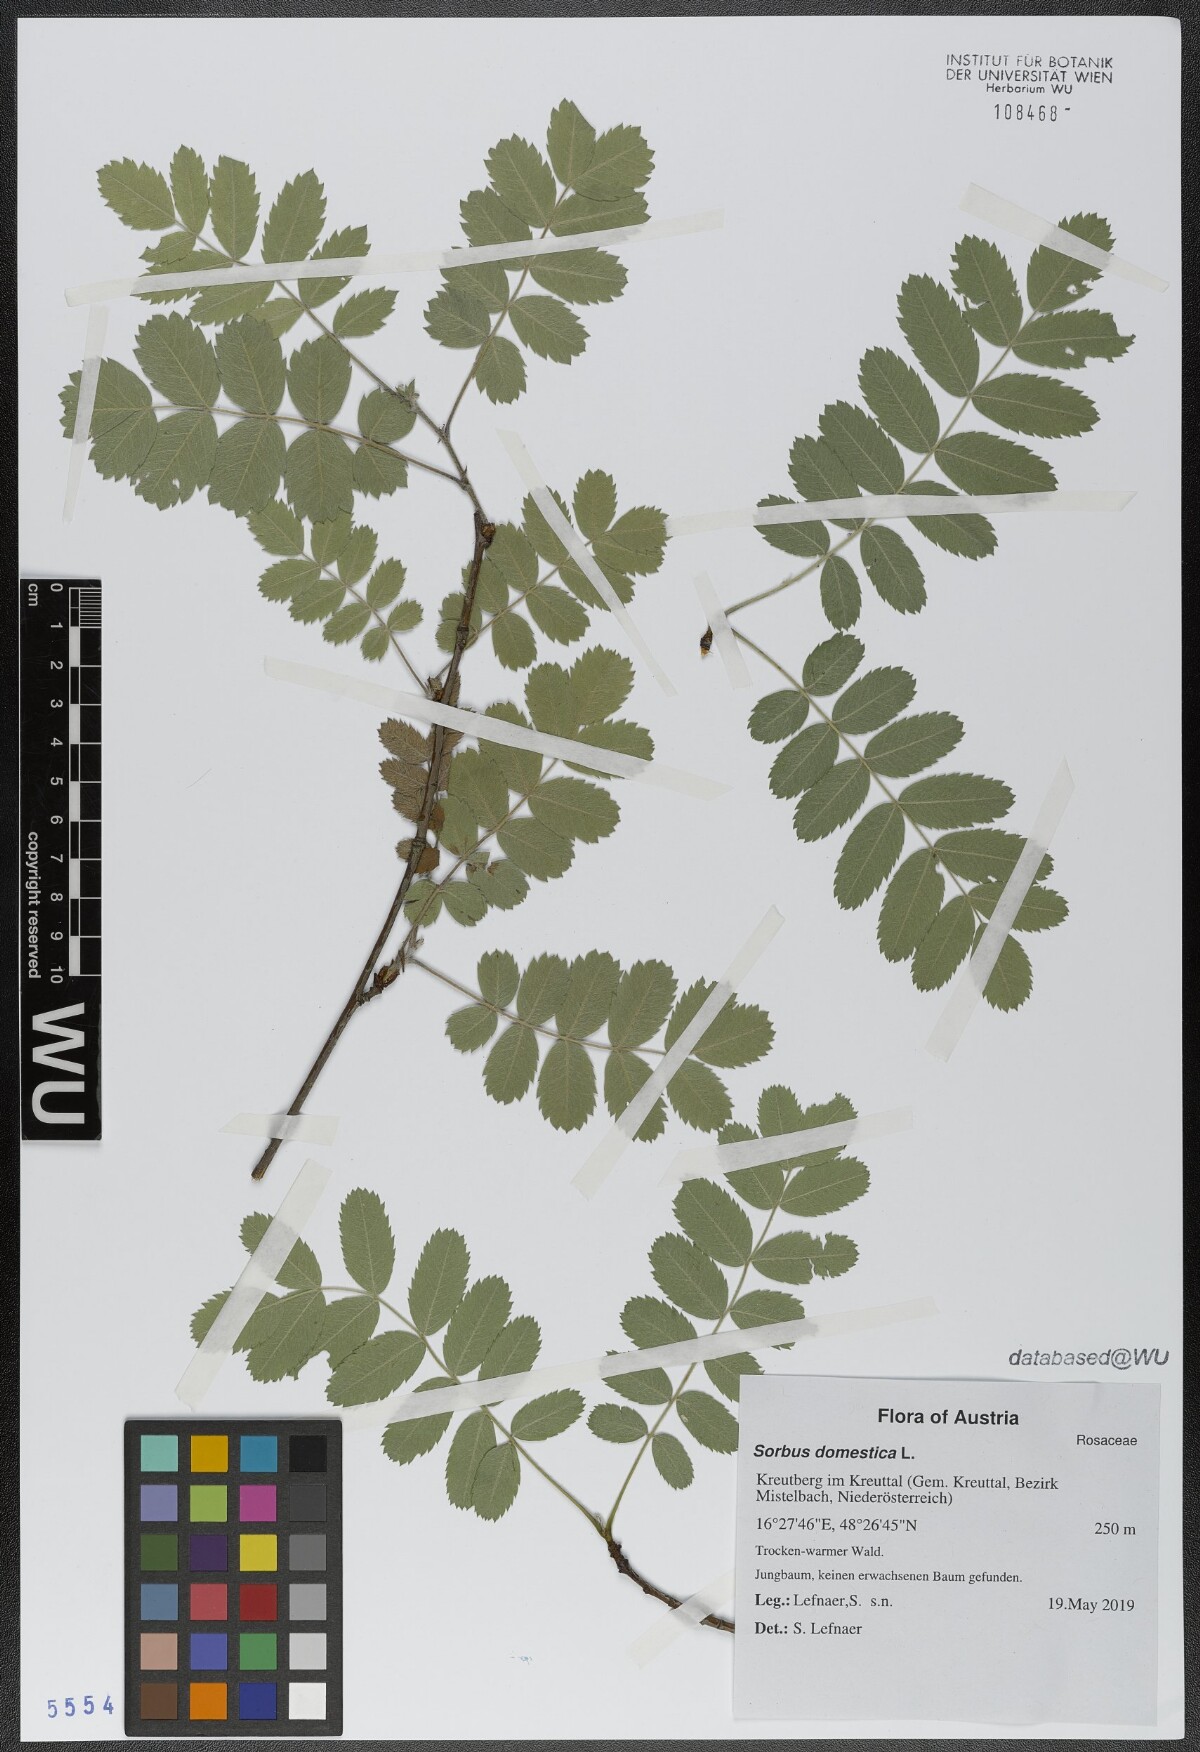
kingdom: Plantae
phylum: Tracheophyta
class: Magnoliopsida
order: Rosales
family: Rosaceae
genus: Cormus
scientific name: Cormus domestica
